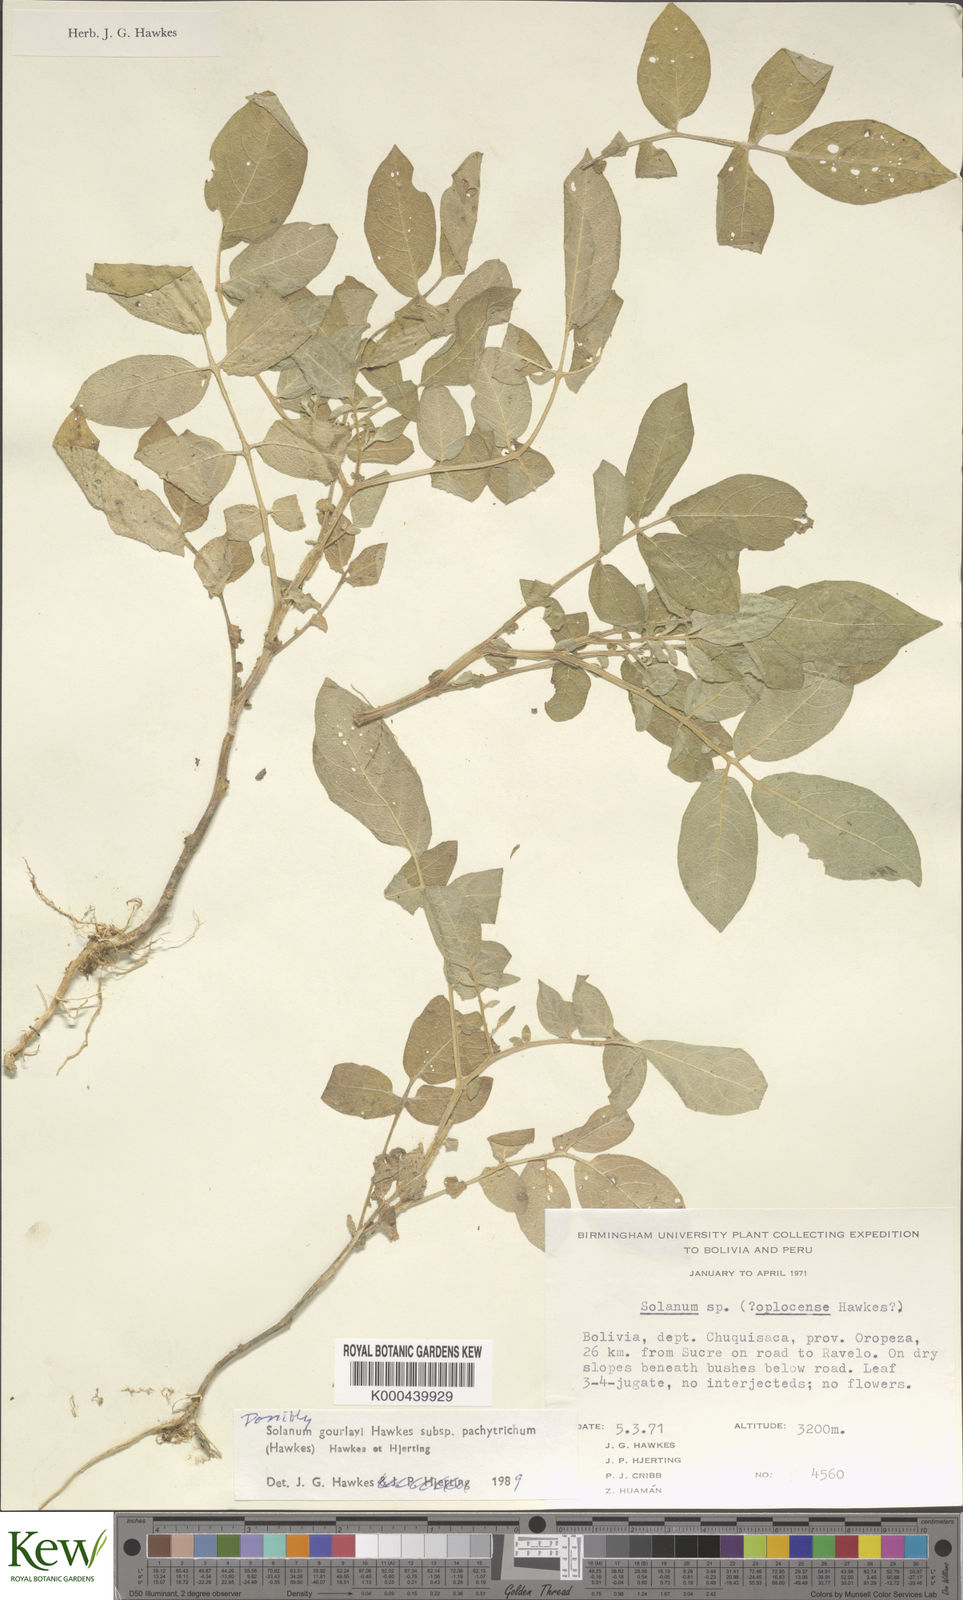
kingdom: Plantae
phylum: Tracheophyta
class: Magnoliopsida
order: Solanales
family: Solanaceae
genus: Solanum
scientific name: Solanum brevicaule
